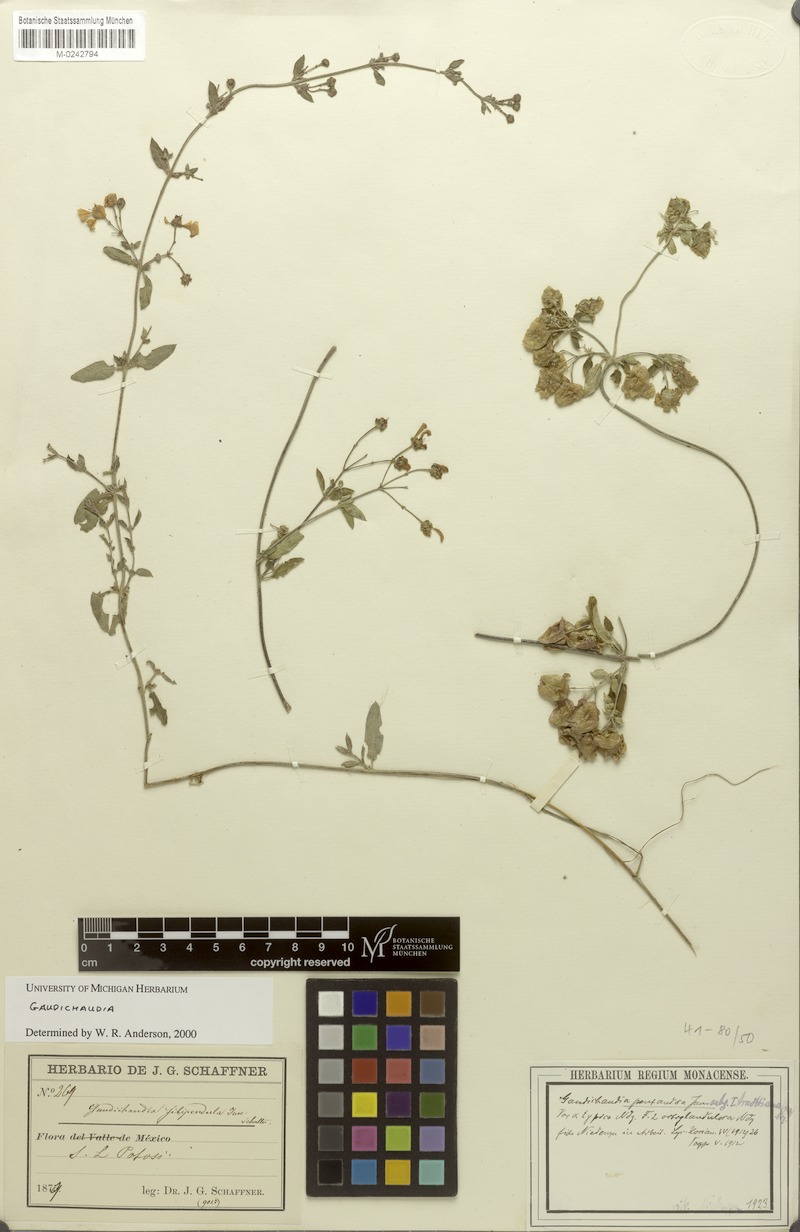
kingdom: Plantae
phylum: Tracheophyta
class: Magnoliopsida
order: Malpighiales
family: Malpighiaceae
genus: Gaudichaudia
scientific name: Gaudichaudia cycloptera
